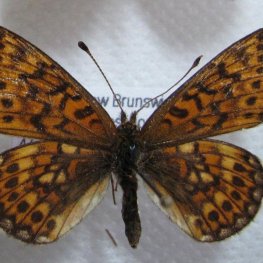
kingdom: Animalia
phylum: Arthropoda
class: Insecta
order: Lepidoptera
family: Nymphalidae
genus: Boloria
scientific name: Boloria eunomia
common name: Bog Fritillary
